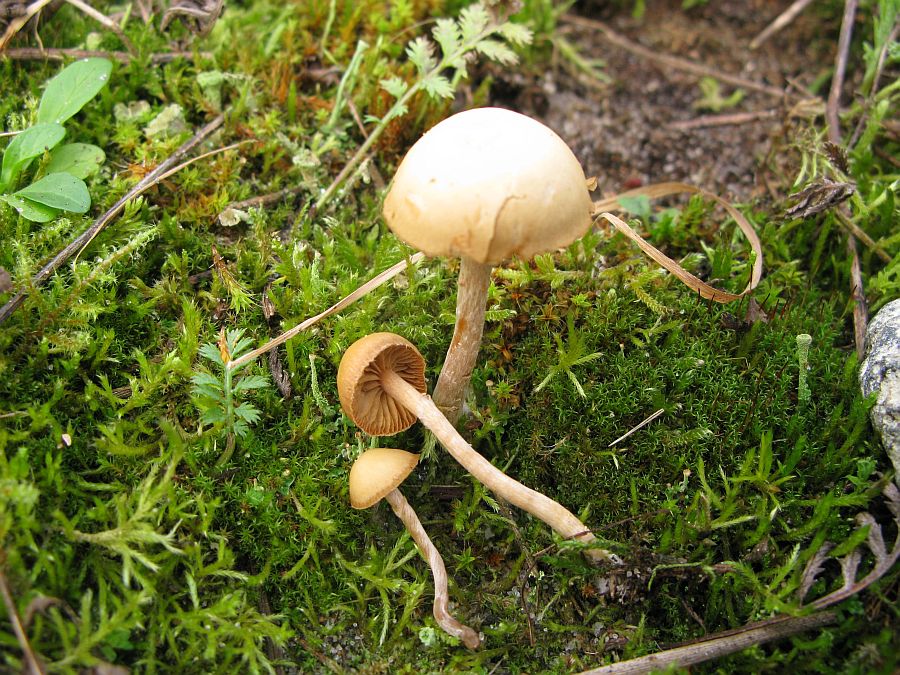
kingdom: Fungi
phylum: Basidiomycota
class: Agaricomycetes
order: Agaricales
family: Tubariaceae
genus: Tubaria
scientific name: Tubaria furfuracea
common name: kliddet fnughat
